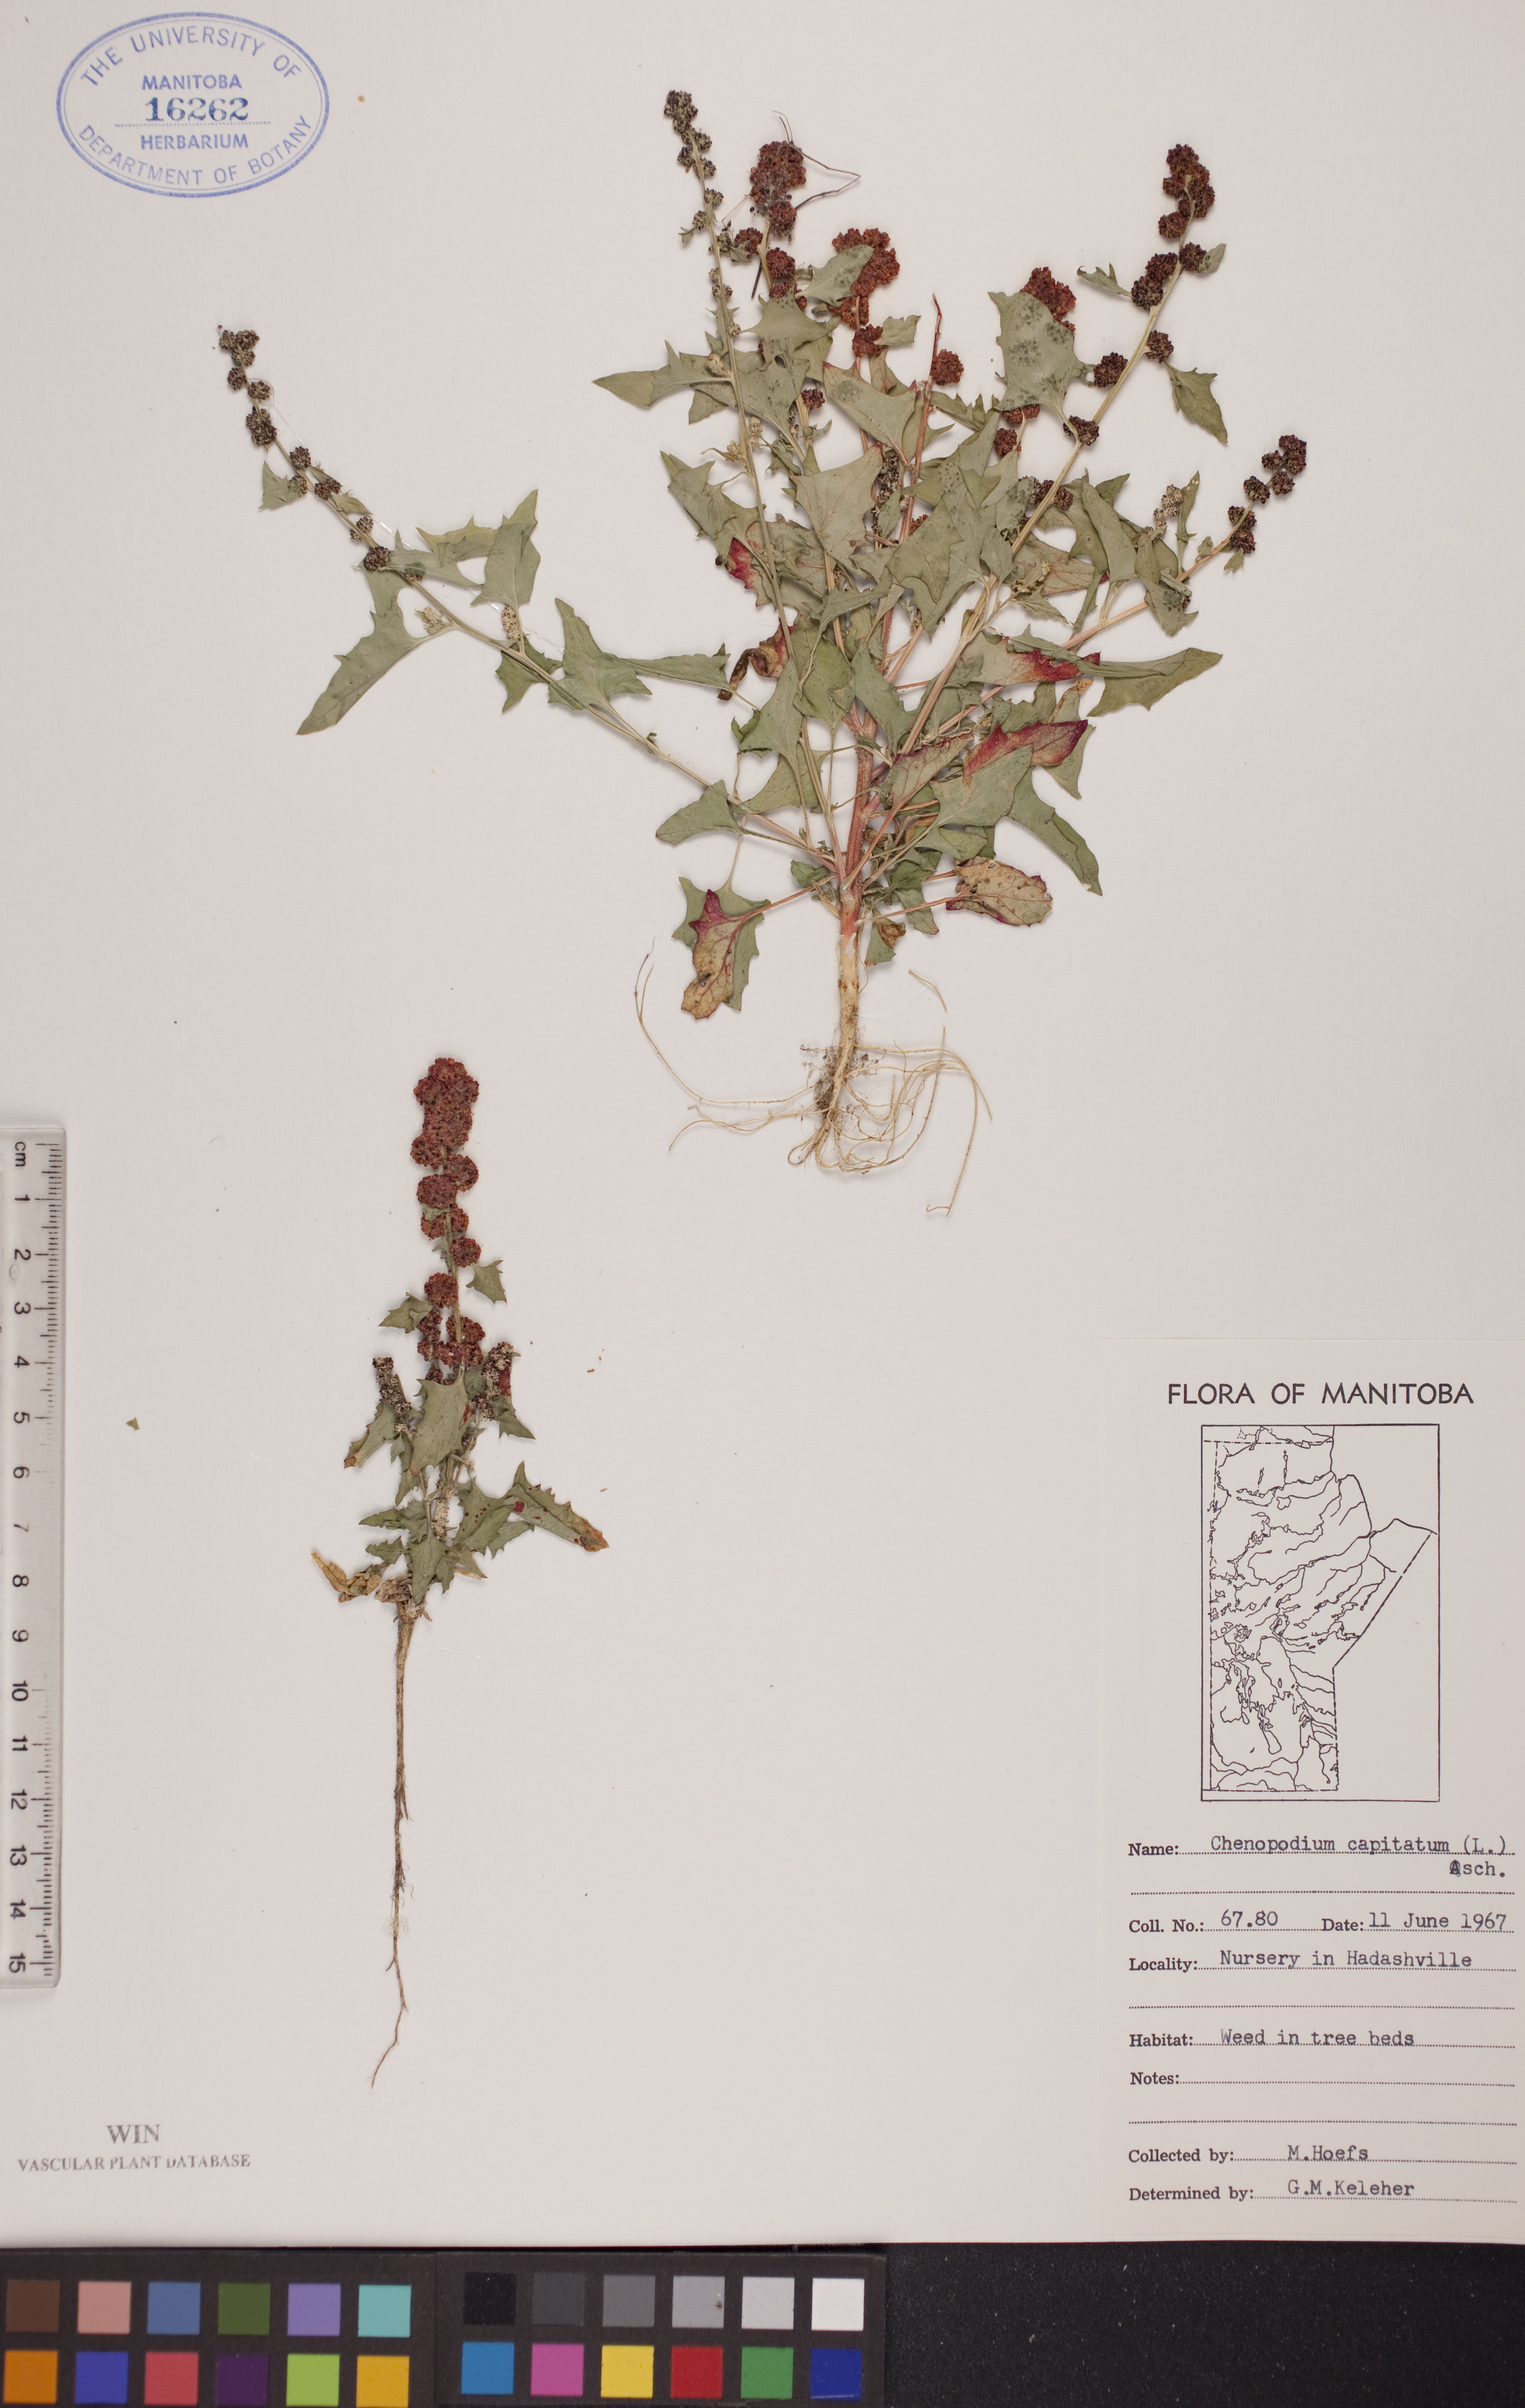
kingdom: Plantae
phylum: Tracheophyta
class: Magnoliopsida
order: Caryophyllales
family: Amaranthaceae
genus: Blitum
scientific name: Blitum capitatum
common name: Strawberry-blight
